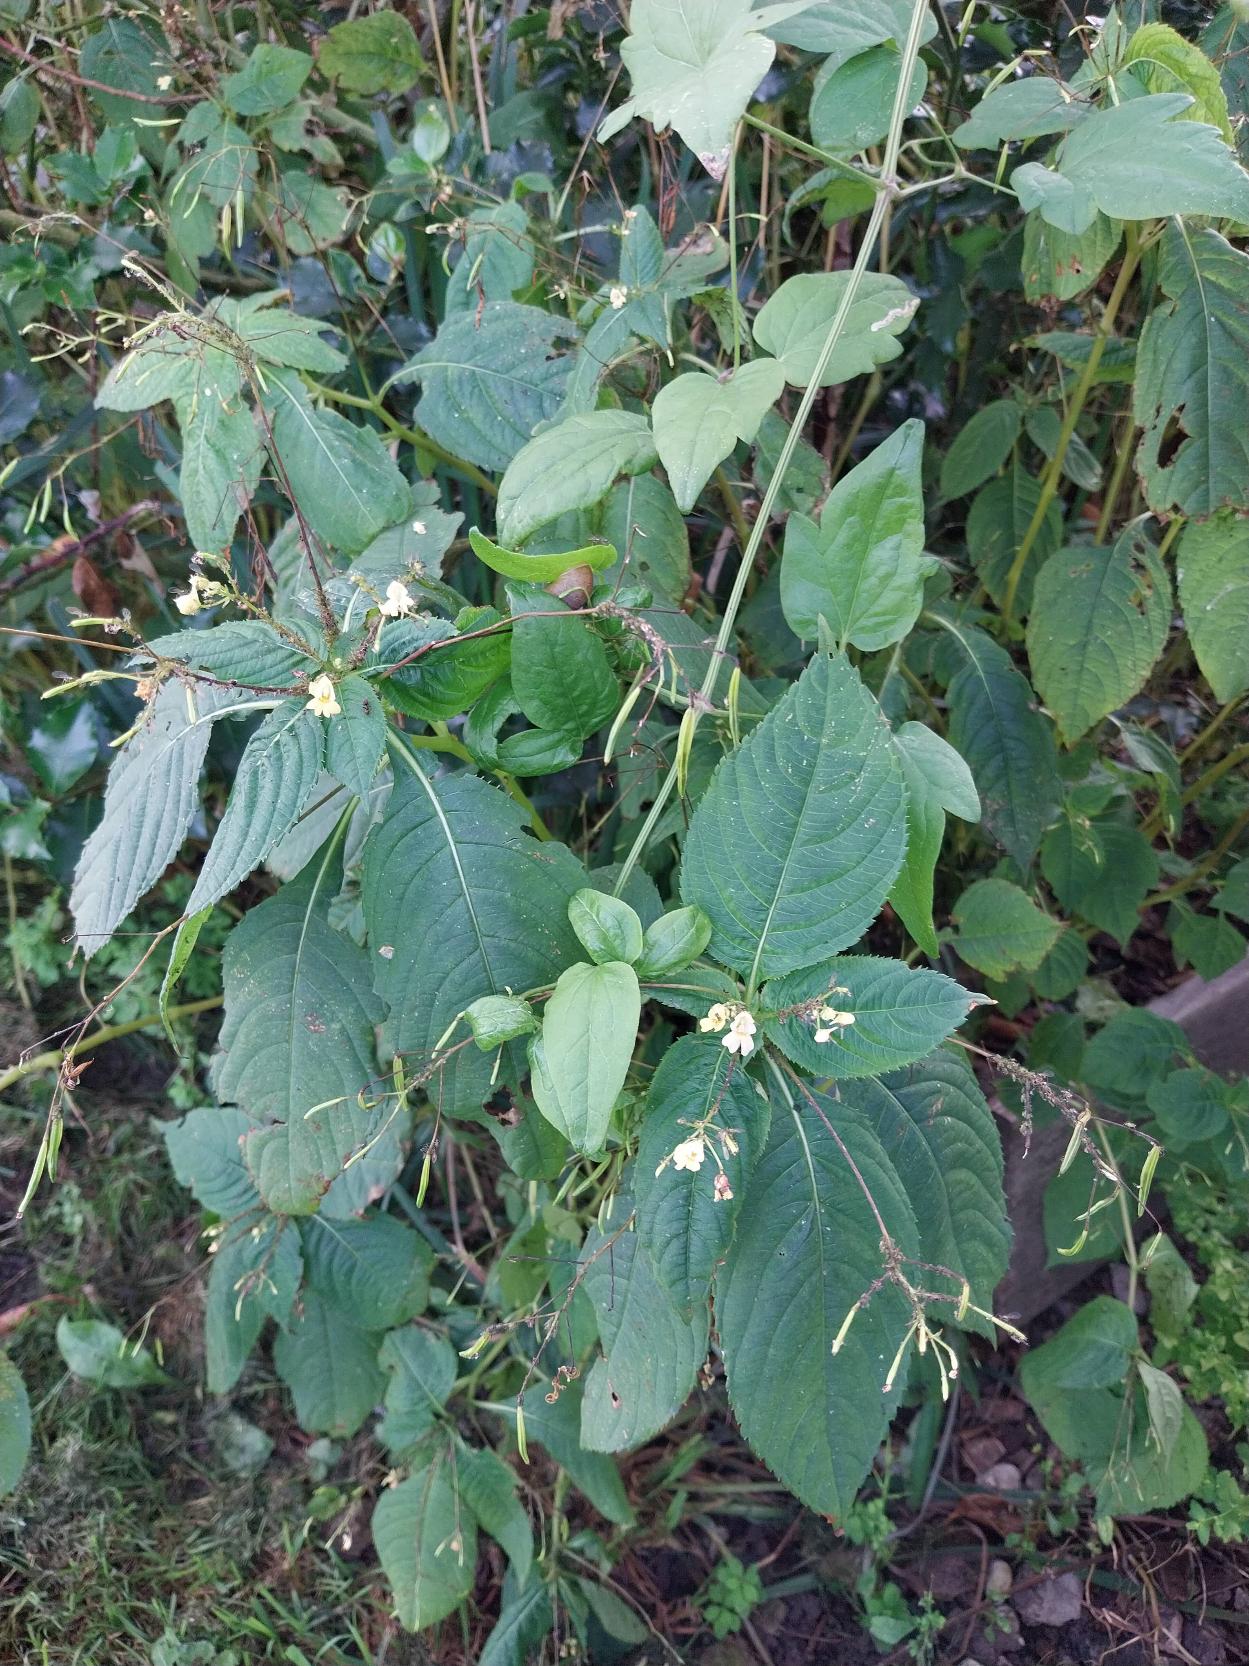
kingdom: Plantae
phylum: Tracheophyta
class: Magnoliopsida
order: Ericales
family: Balsaminaceae
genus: Impatiens
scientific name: Impatiens parviflora
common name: Småblomstret balsamin
